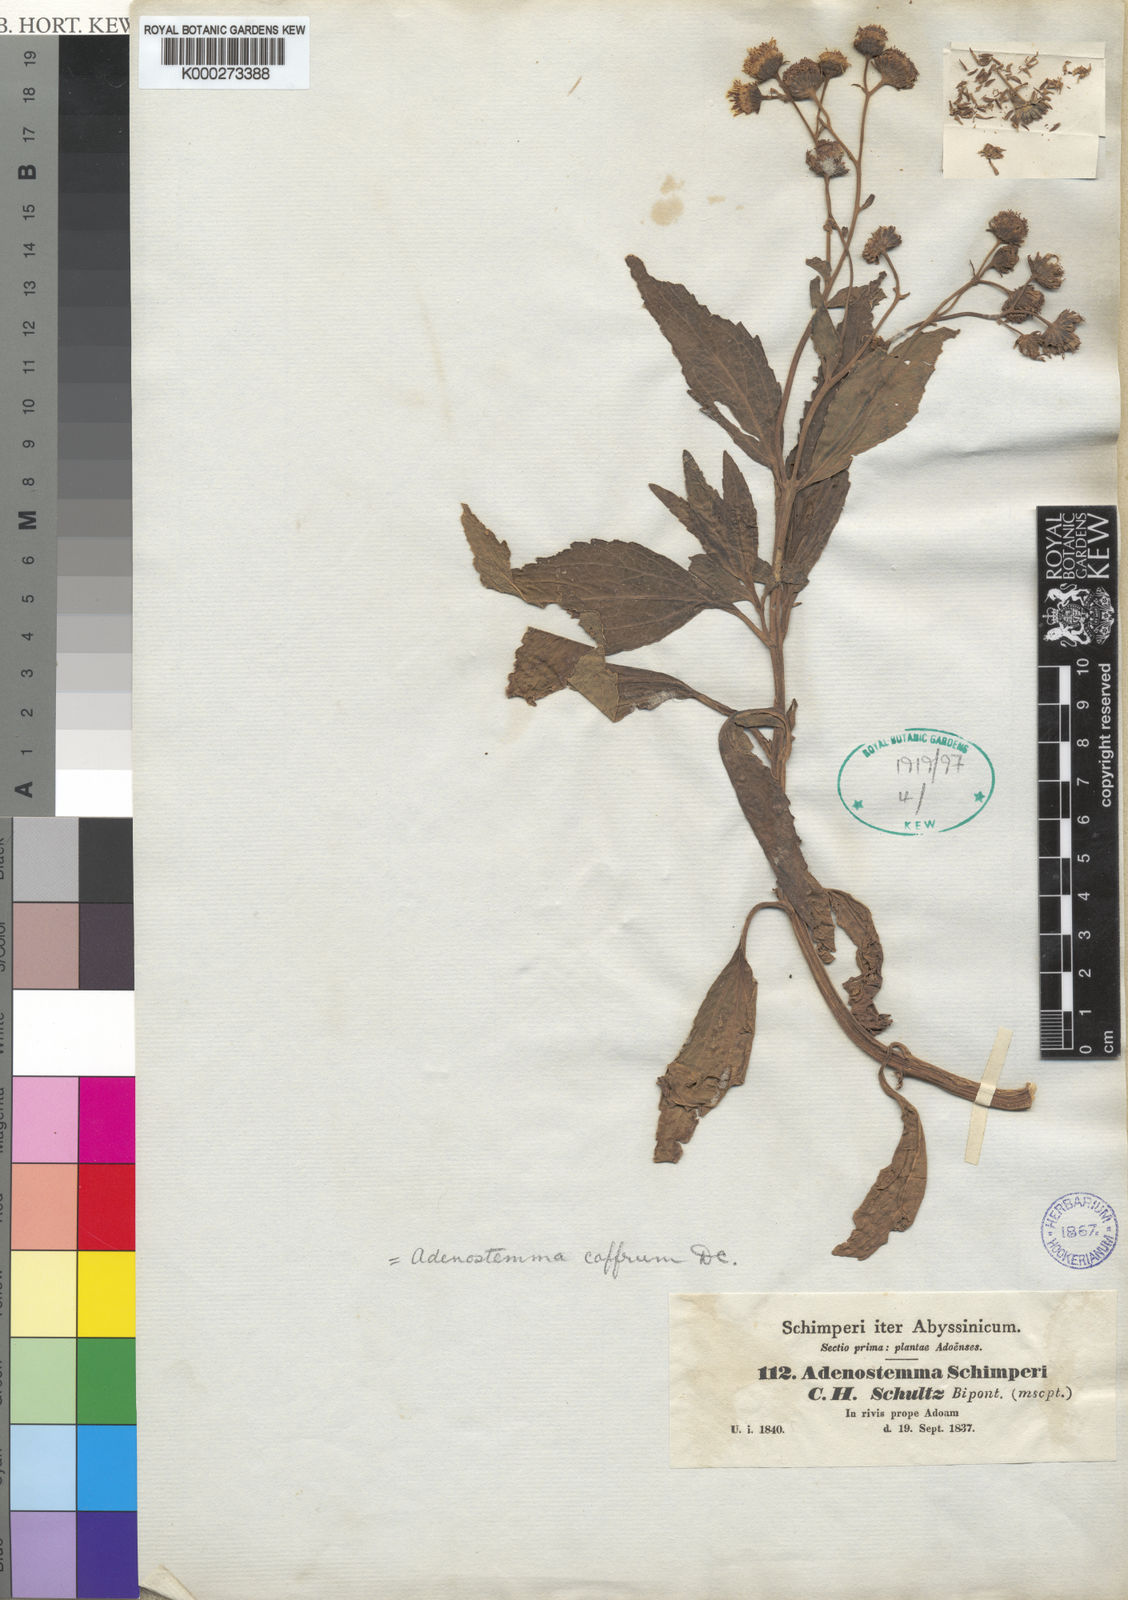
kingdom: Plantae
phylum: Tracheophyta
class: Magnoliopsida
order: Asterales
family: Asteraceae
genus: Adenostemma
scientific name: Adenostemma caffrum
